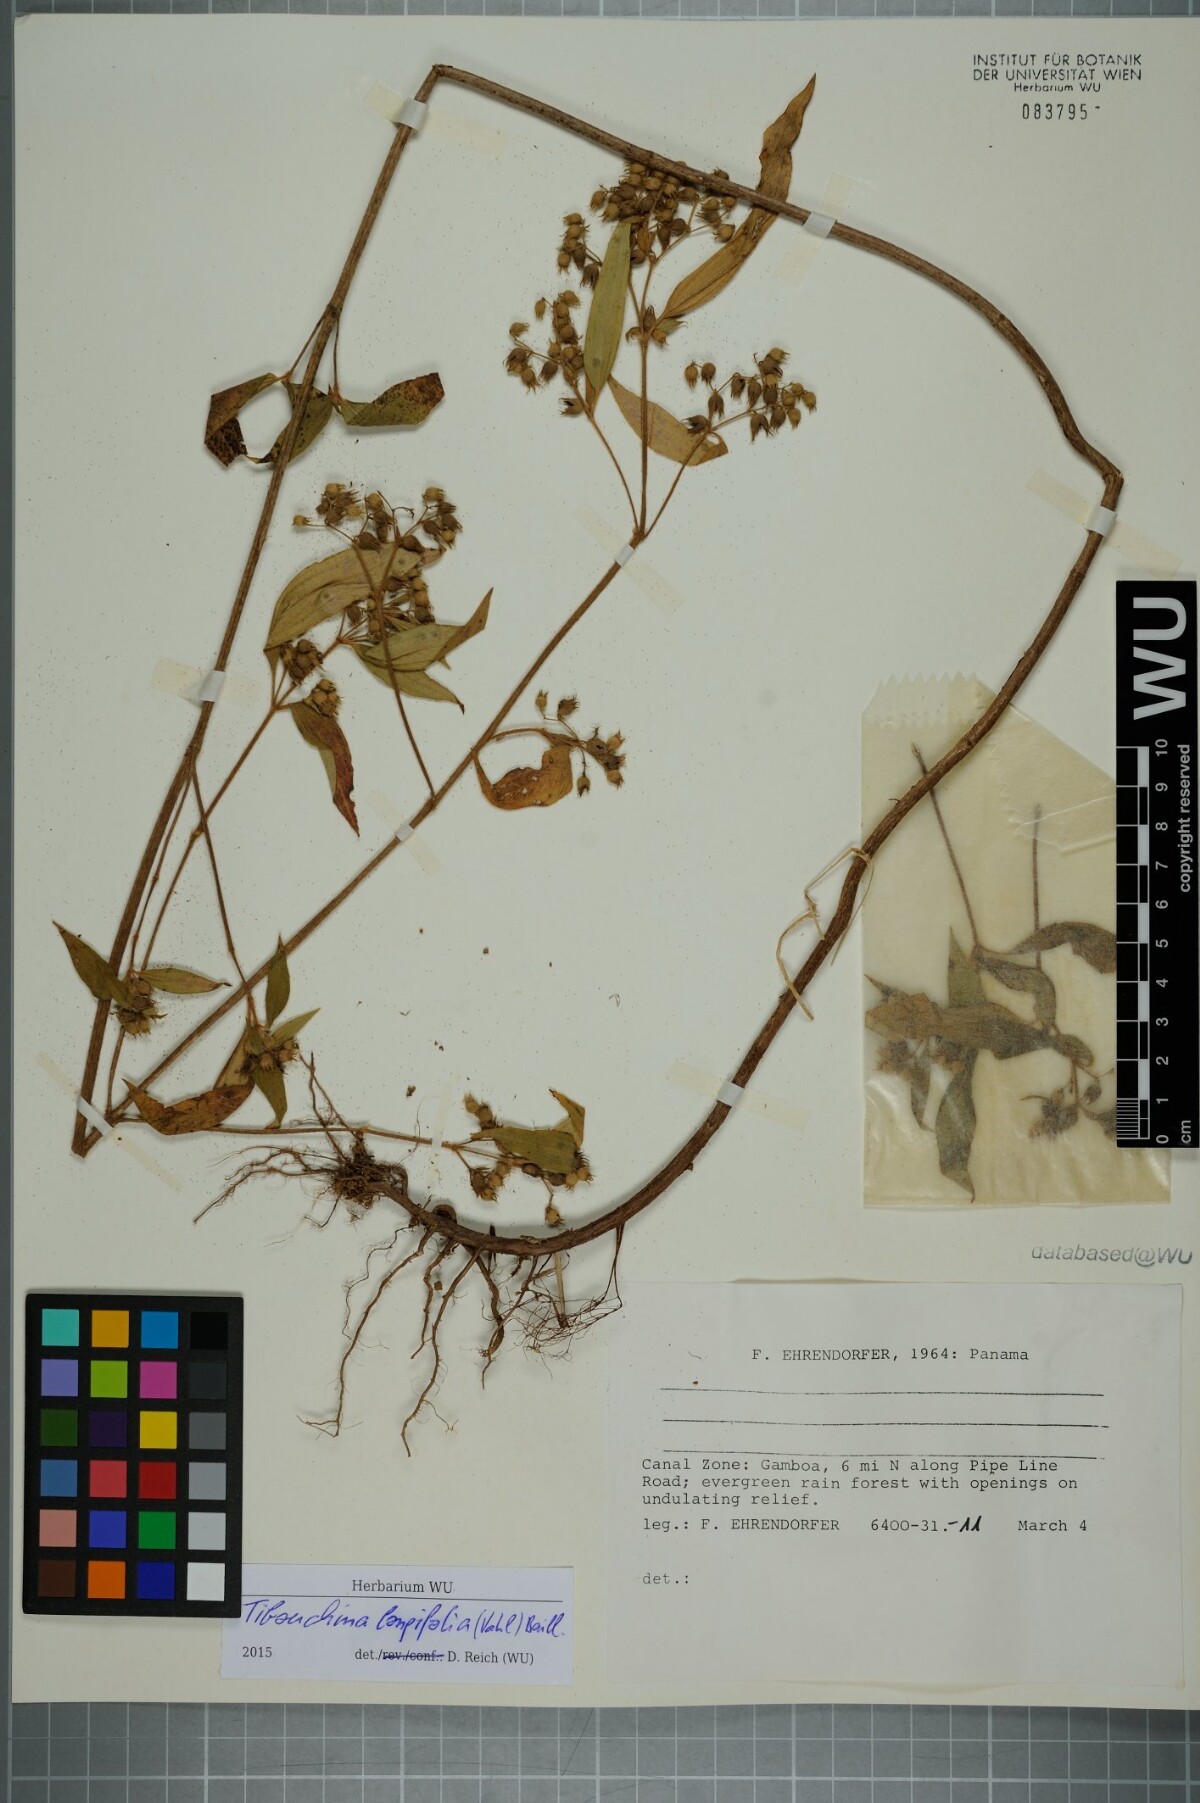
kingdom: Plantae
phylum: Tracheophyta
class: Magnoliopsida
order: Myrtales
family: Melastomataceae
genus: Chaetogastra
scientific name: Chaetogastra longifolia
